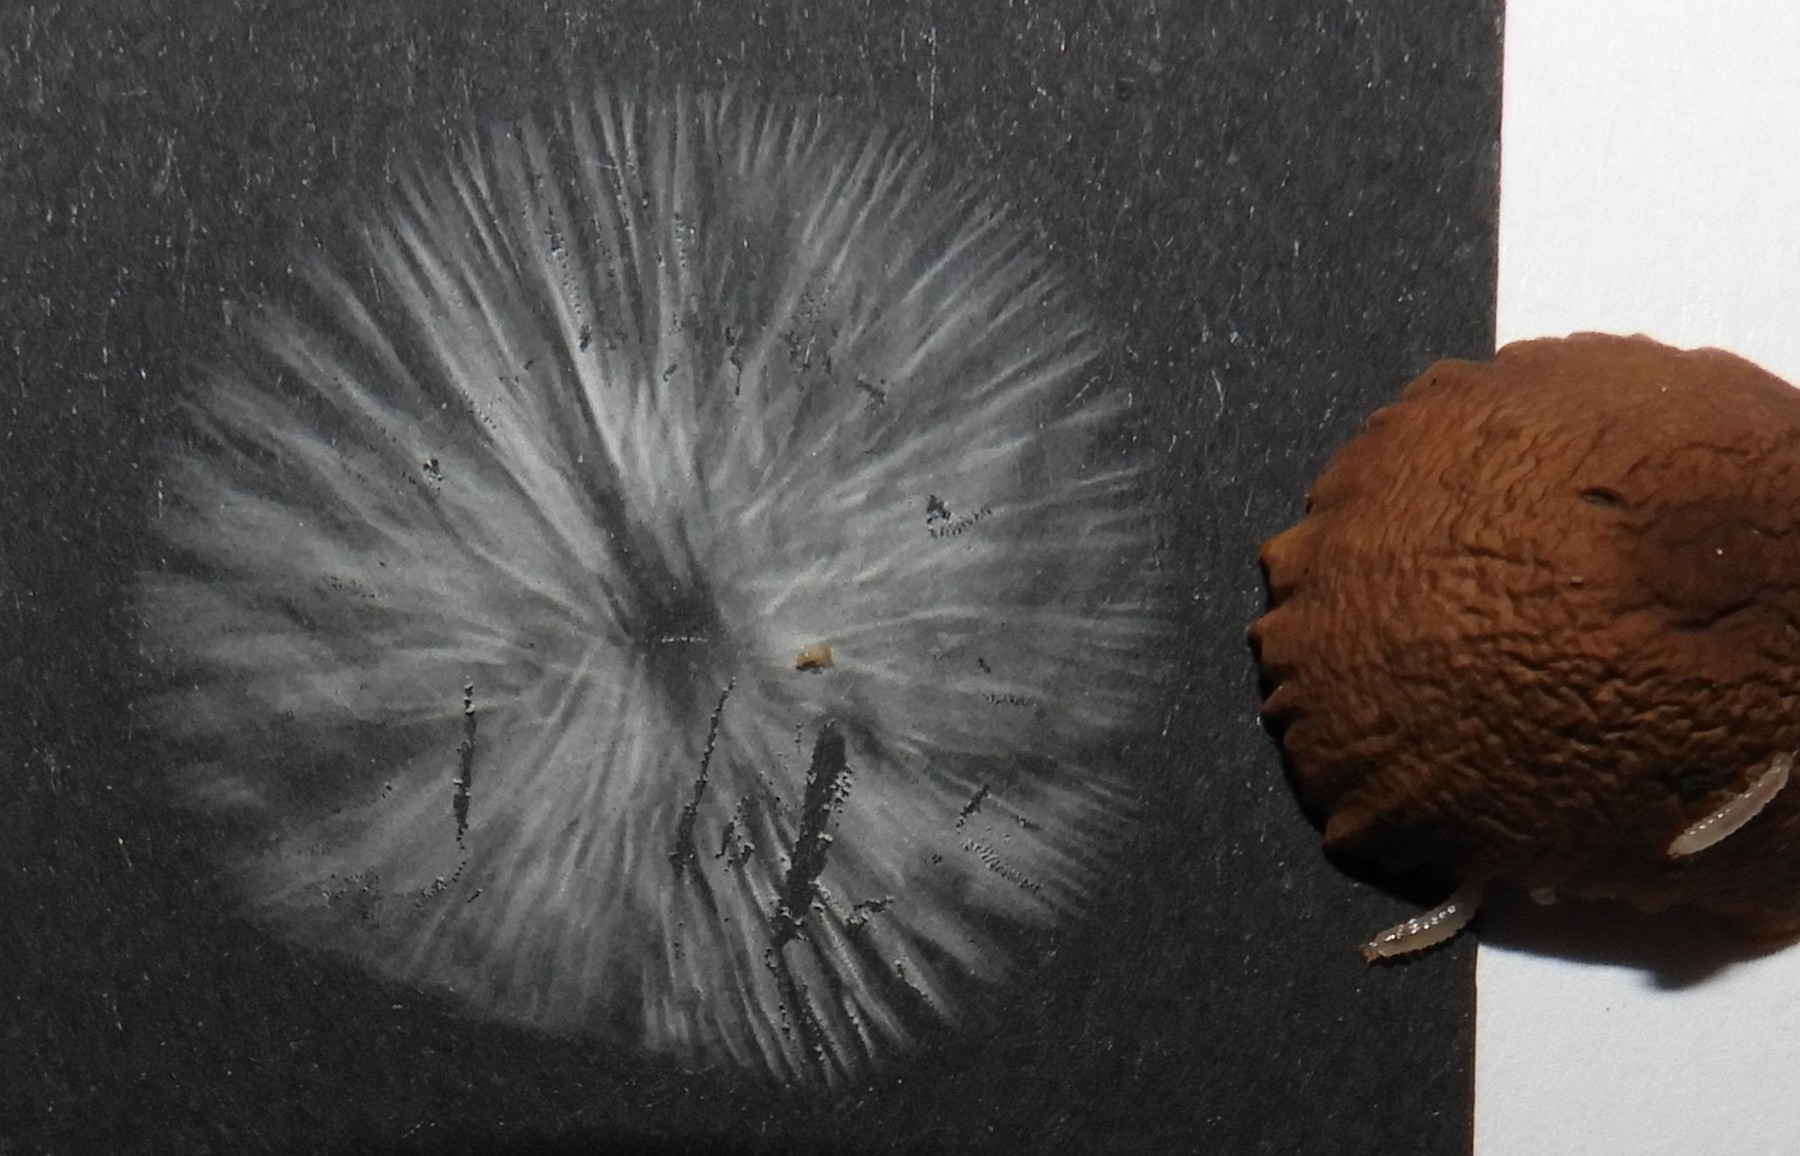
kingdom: Fungi
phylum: Basidiomycota
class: Agaricomycetes
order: Agaricales
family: Omphalotaceae
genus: Mycetinis
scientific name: Mycetinis alliaceus
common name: stor løghat
